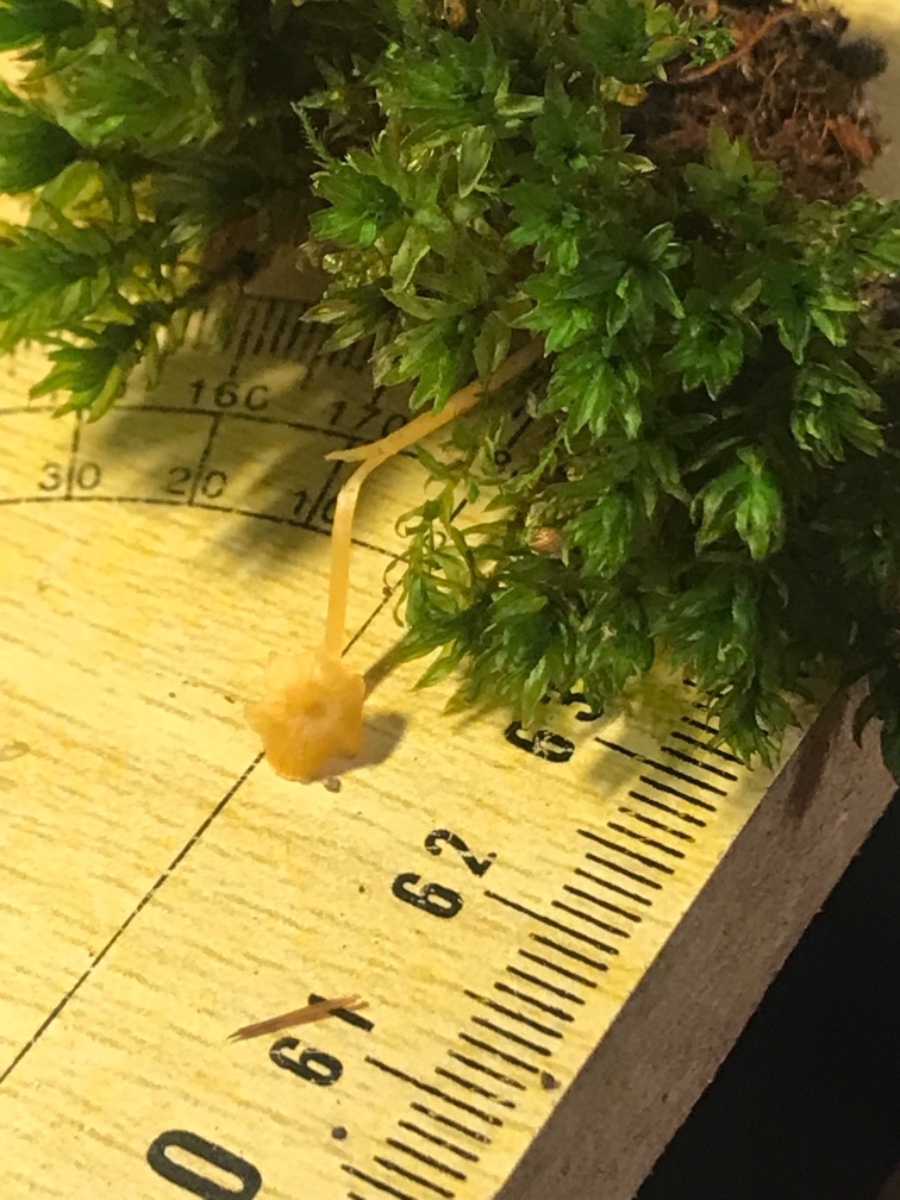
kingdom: Fungi
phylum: Basidiomycota
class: Agaricomycetes
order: Hymenochaetales
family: Rickenellaceae
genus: Rickenella
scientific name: Rickenella fibula
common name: orange mosnavlehat
